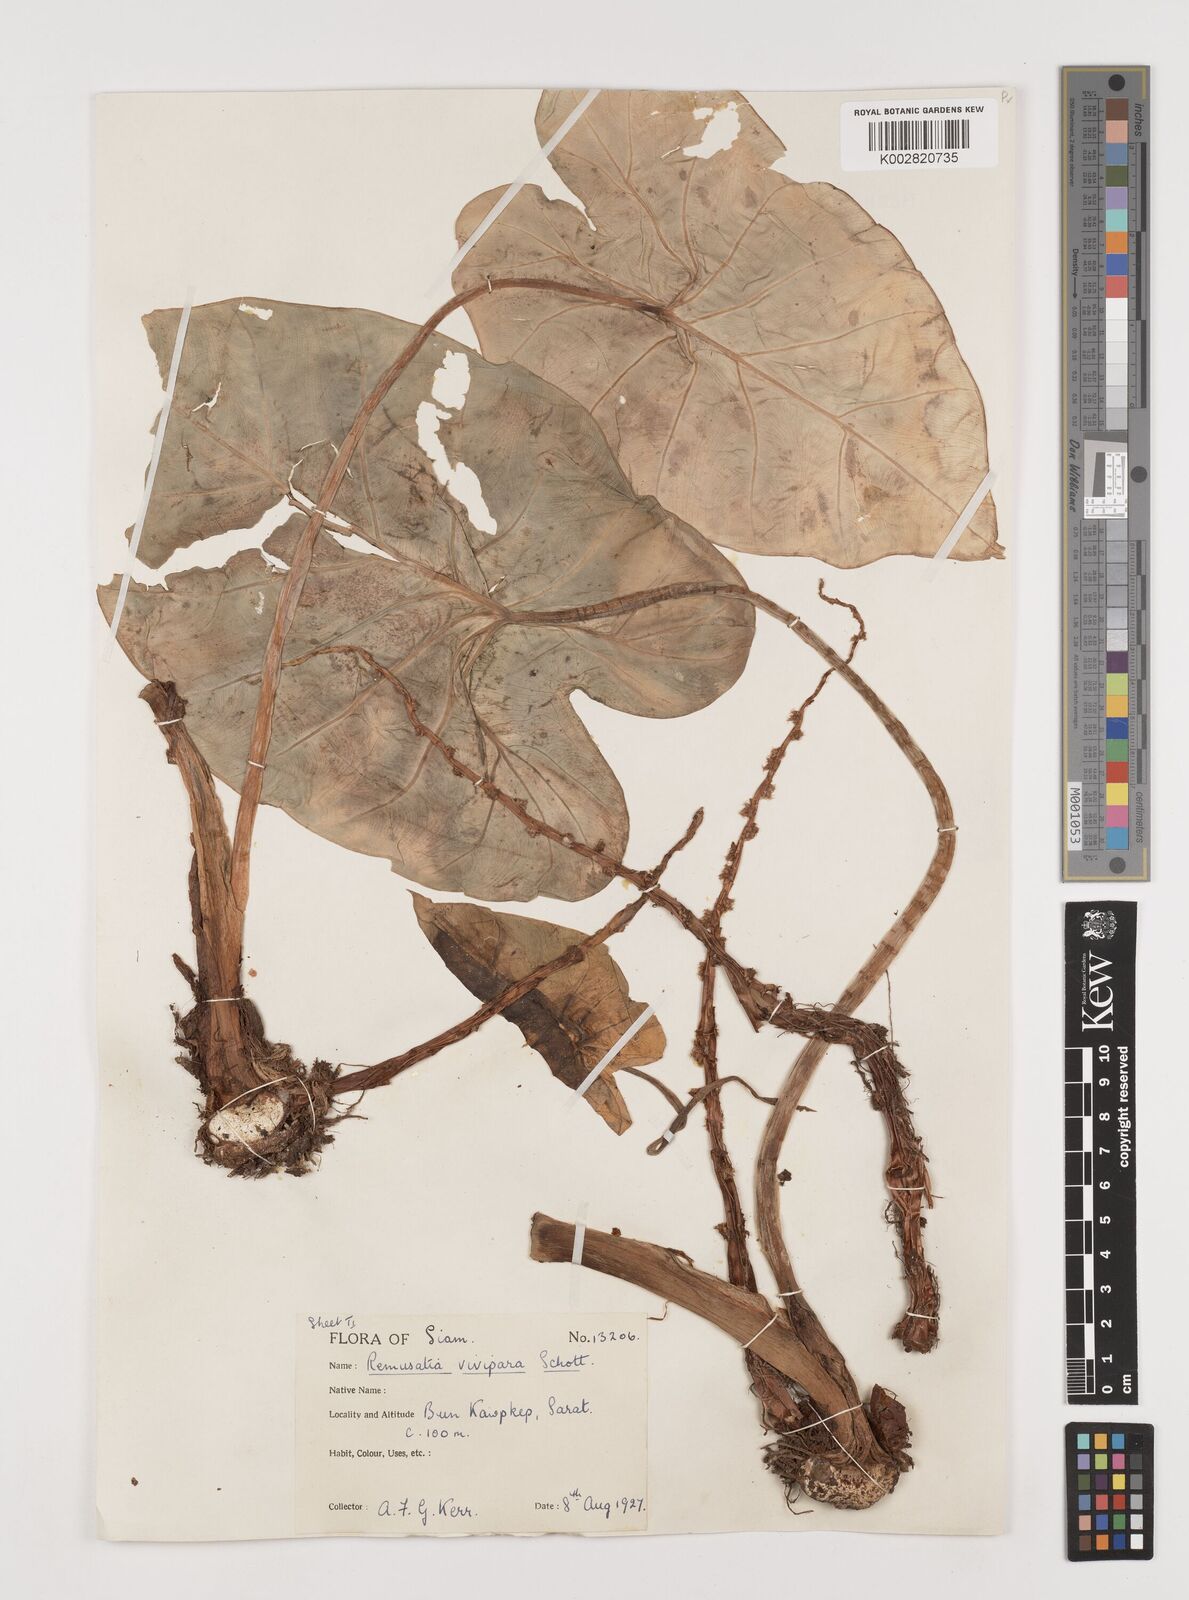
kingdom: Plantae
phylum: Tracheophyta
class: Liliopsida
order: Alismatales
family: Araceae
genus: Remusatia
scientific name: Remusatia vivipara
